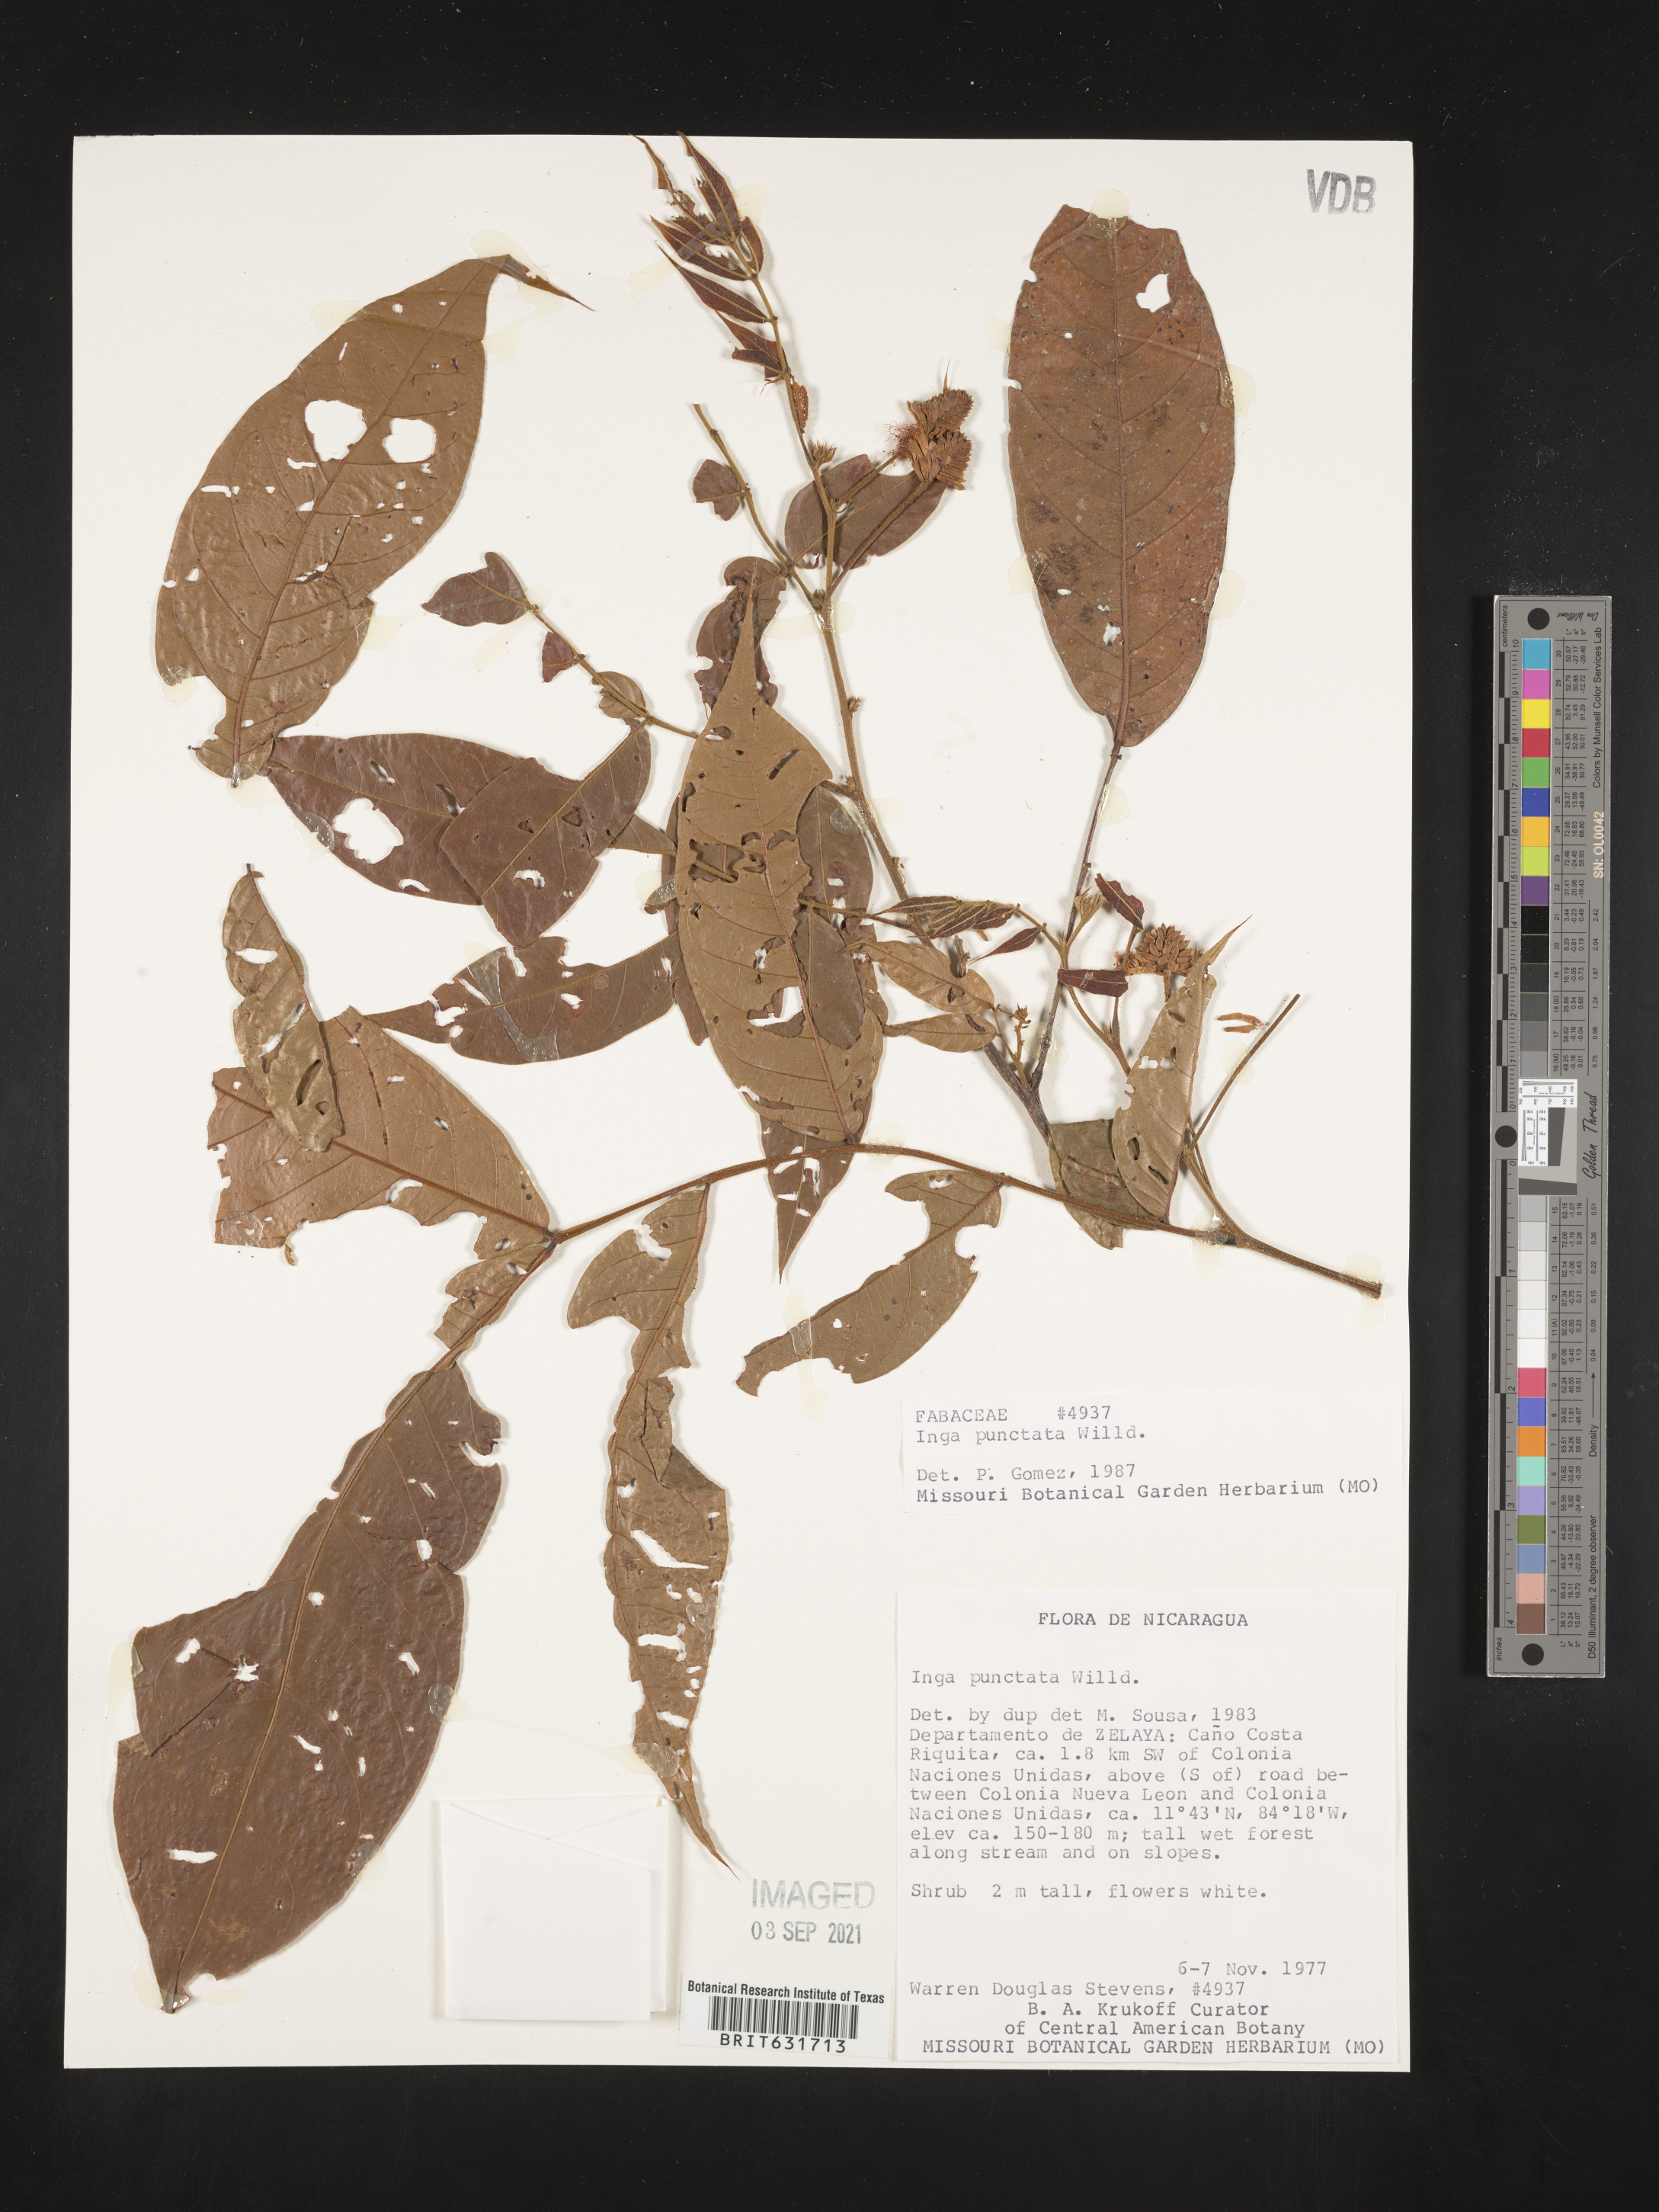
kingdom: Plantae
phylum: Tracheophyta
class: Magnoliopsida
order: Fabales
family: Fabaceae
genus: Inga
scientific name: Inga
